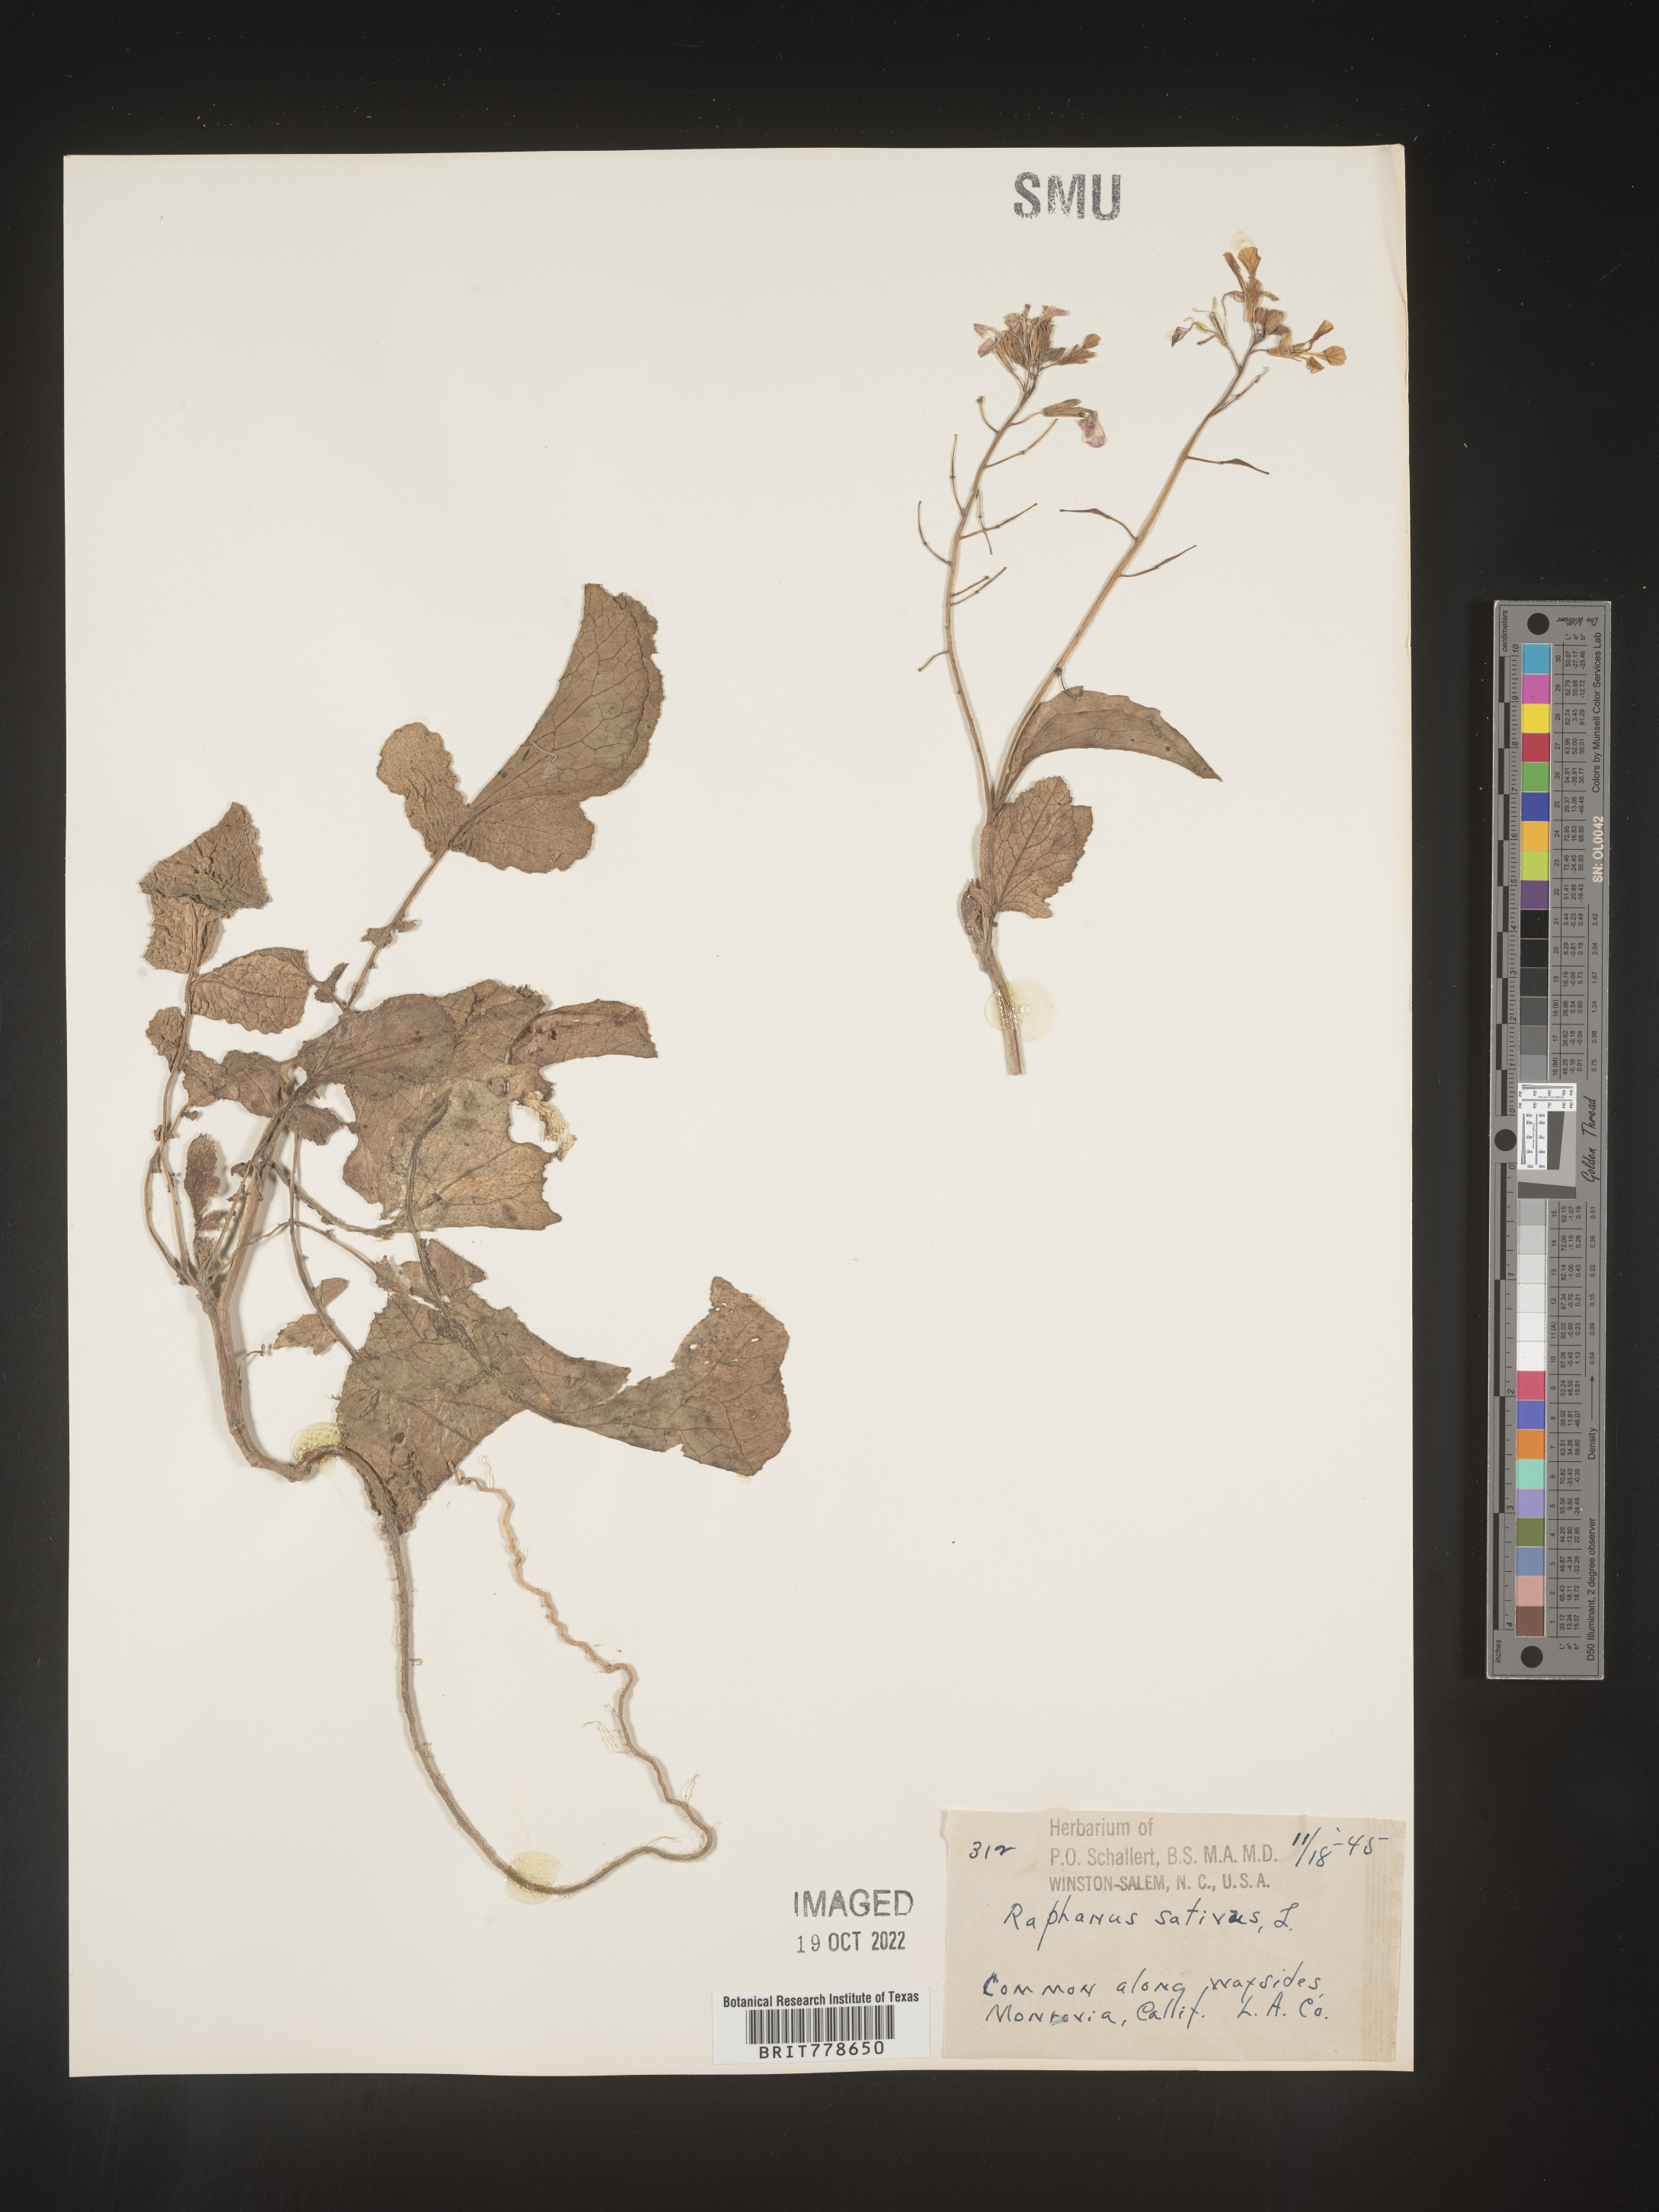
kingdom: Plantae
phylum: Tracheophyta
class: Magnoliopsida
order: Brassicales
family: Brassicaceae
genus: Raphanus
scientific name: Raphanus sativus
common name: Cultivated radish
